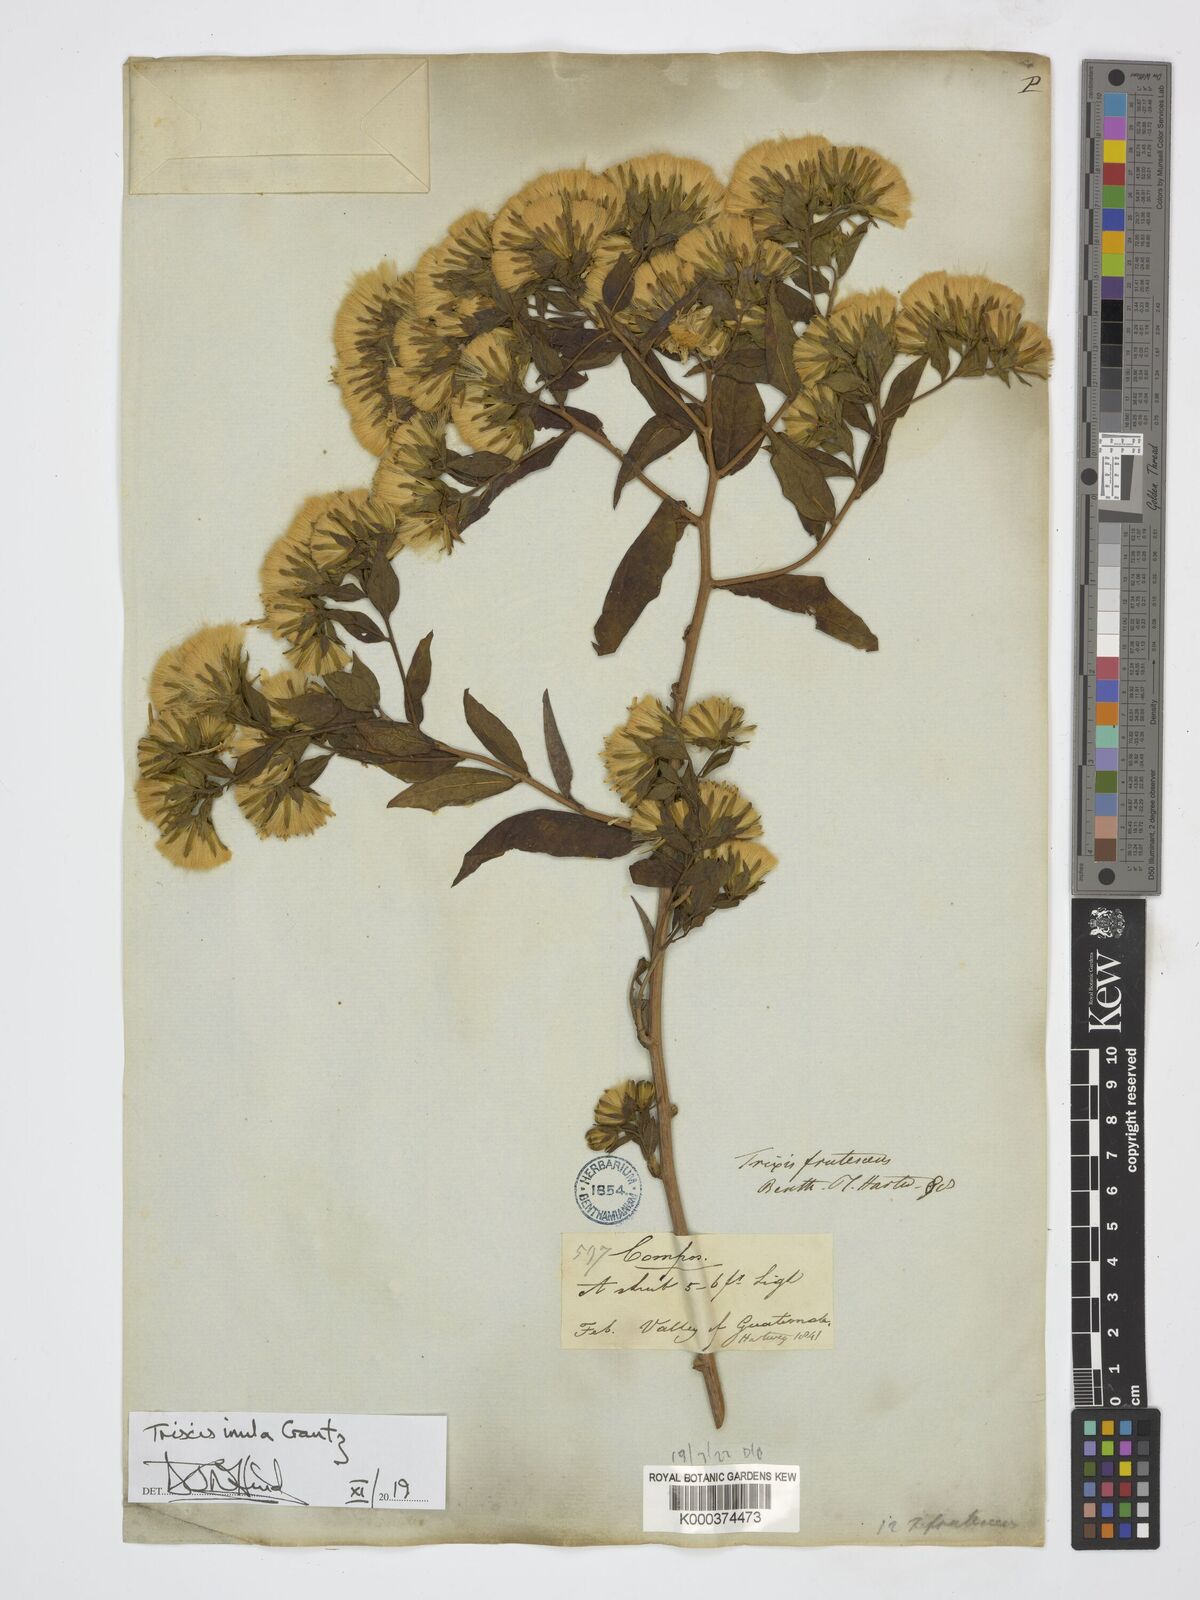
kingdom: Plantae
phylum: Tracheophyta
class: Magnoliopsida
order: Asterales
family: Asteraceae
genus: Trixis
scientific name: Trixis inula
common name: Tropical threefold
